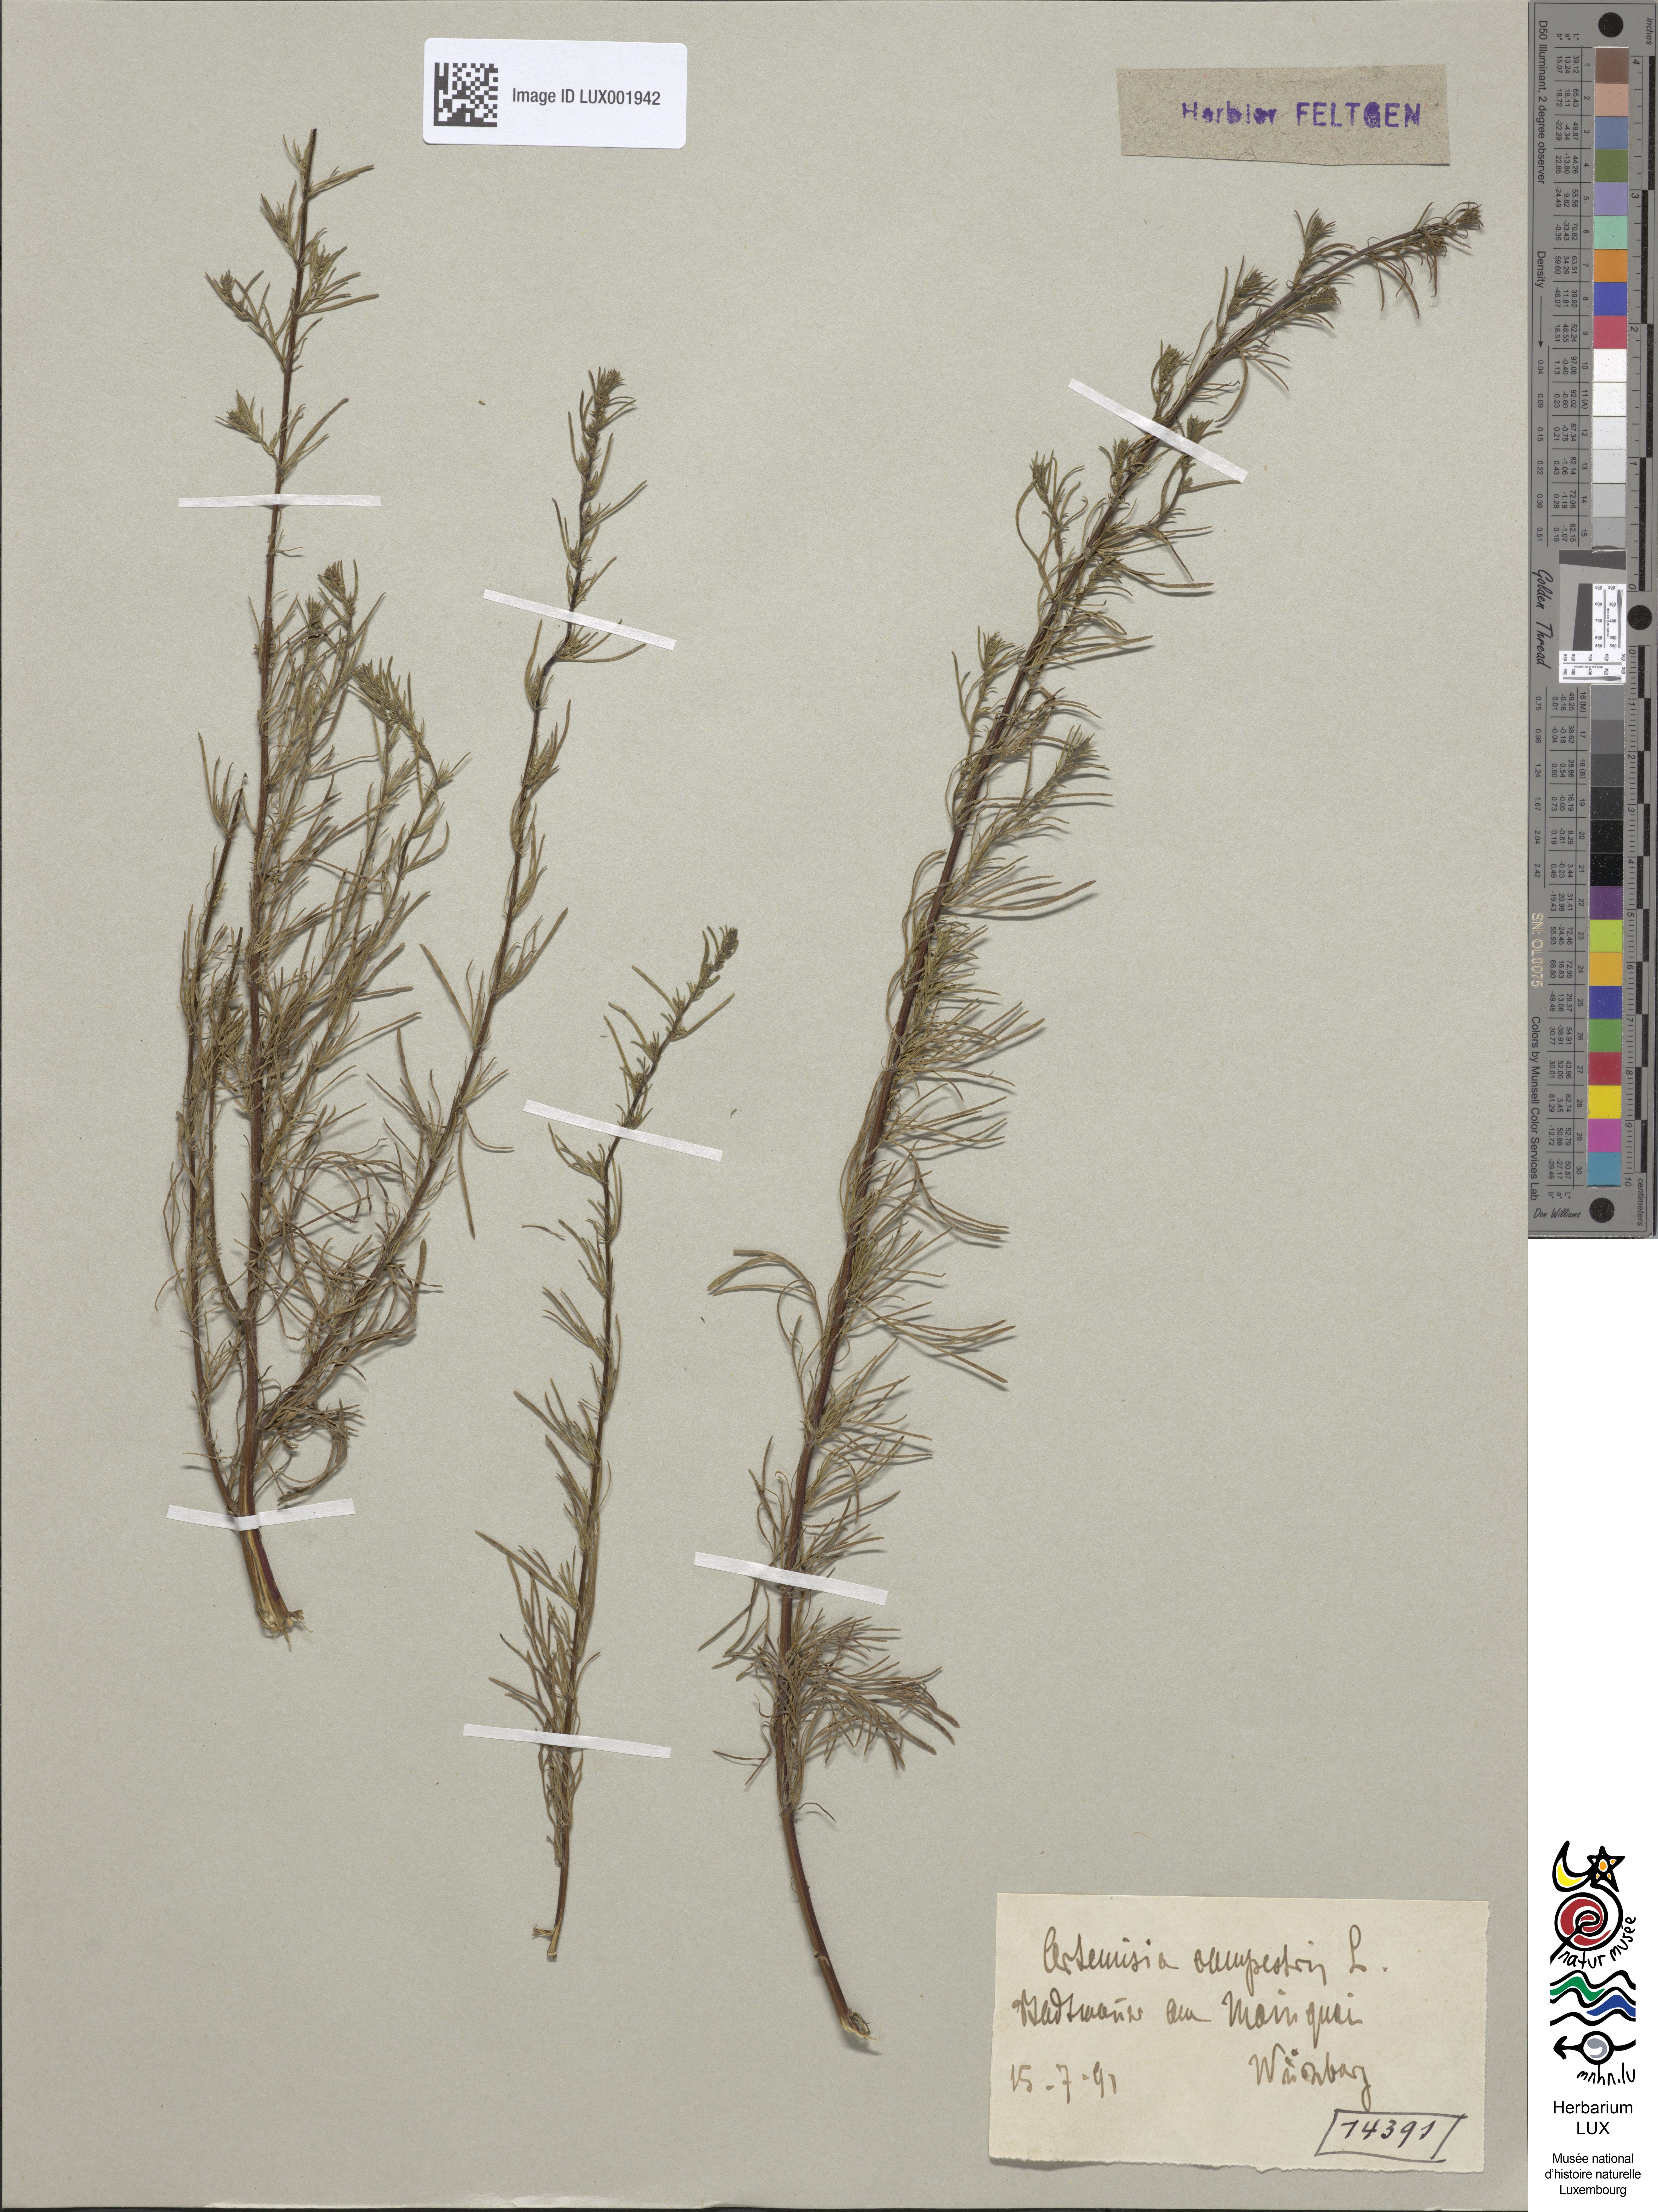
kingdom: Plantae
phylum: Tracheophyta
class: Magnoliopsida
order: Asterales
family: Asteraceae
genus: Artemisia
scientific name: Artemisia campestris
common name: Field wormwood
